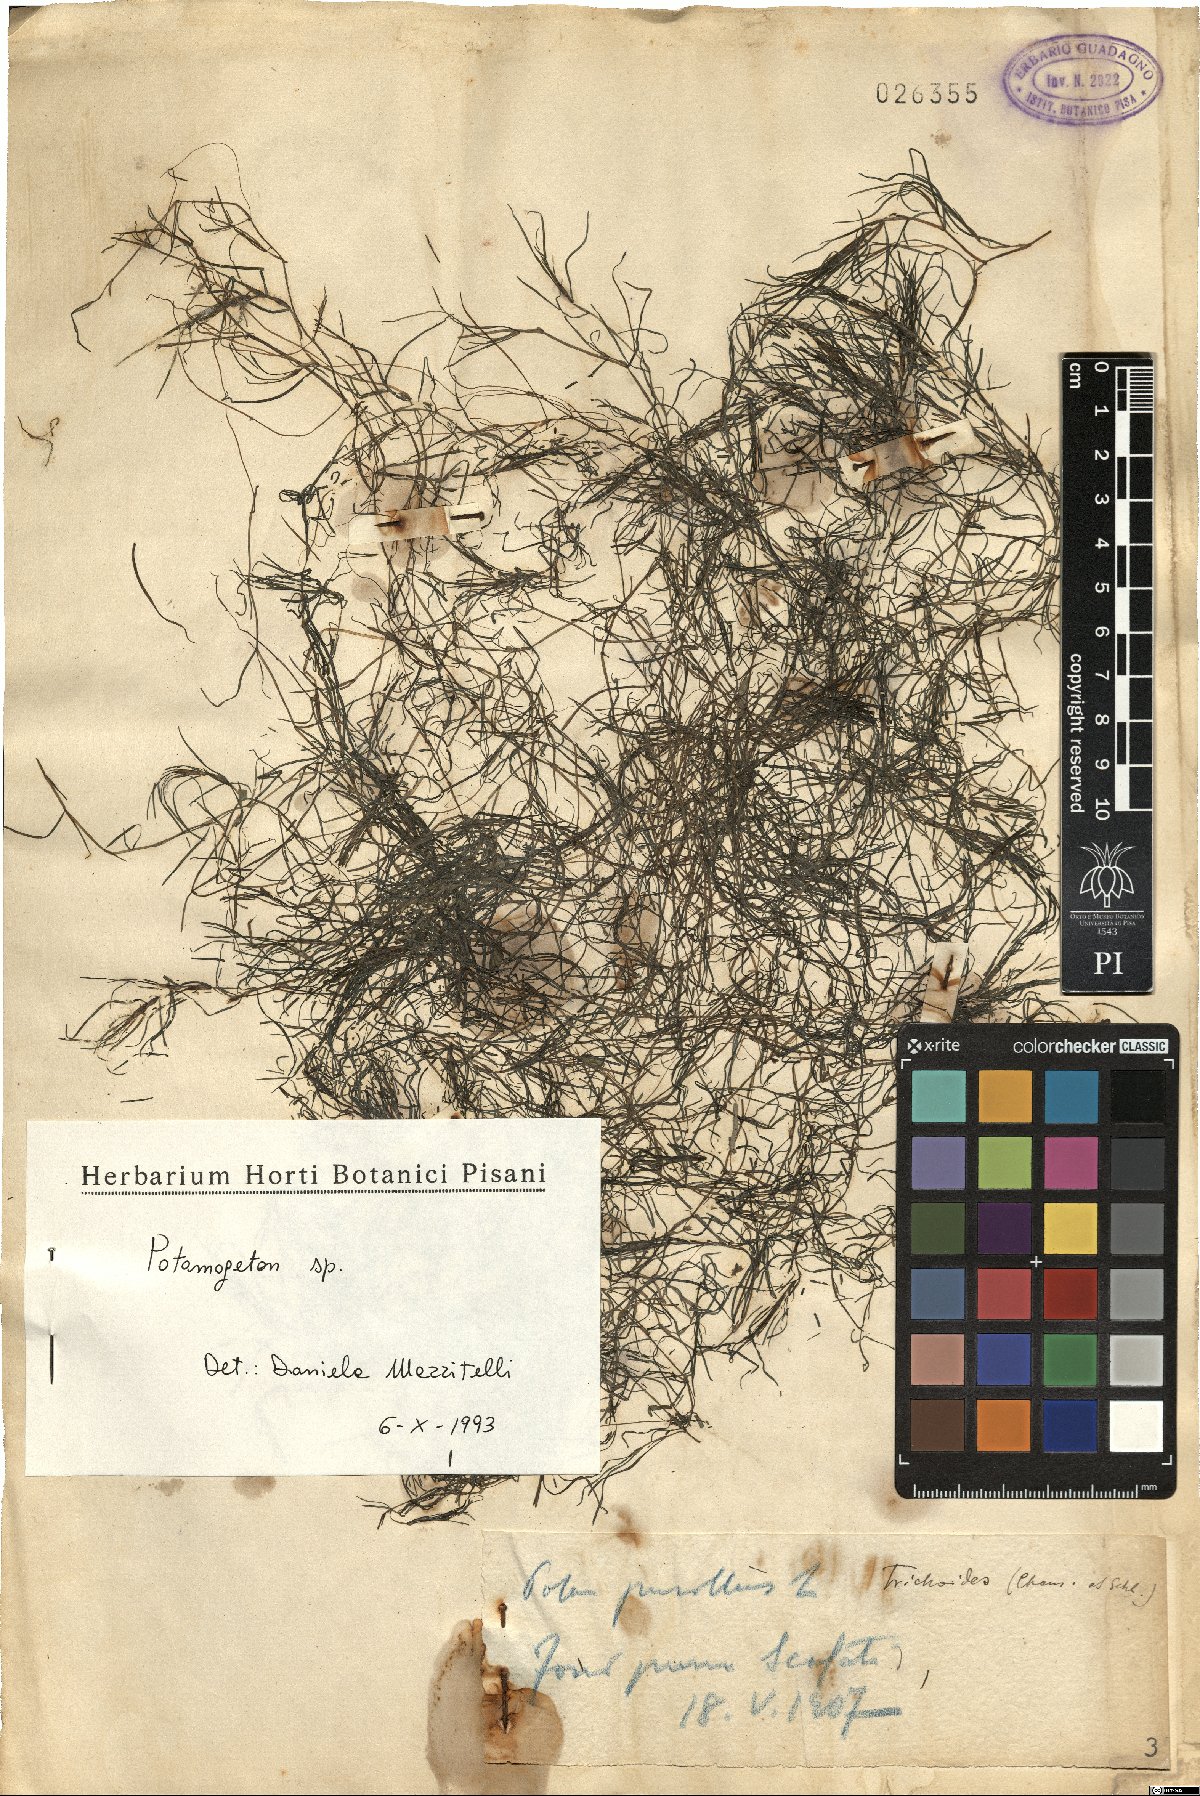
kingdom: Plantae
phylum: Tracheophyta
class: Liliopsida
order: Alismatales
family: Potamogetonaceae
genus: Potamogeton
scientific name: Potamogeton
